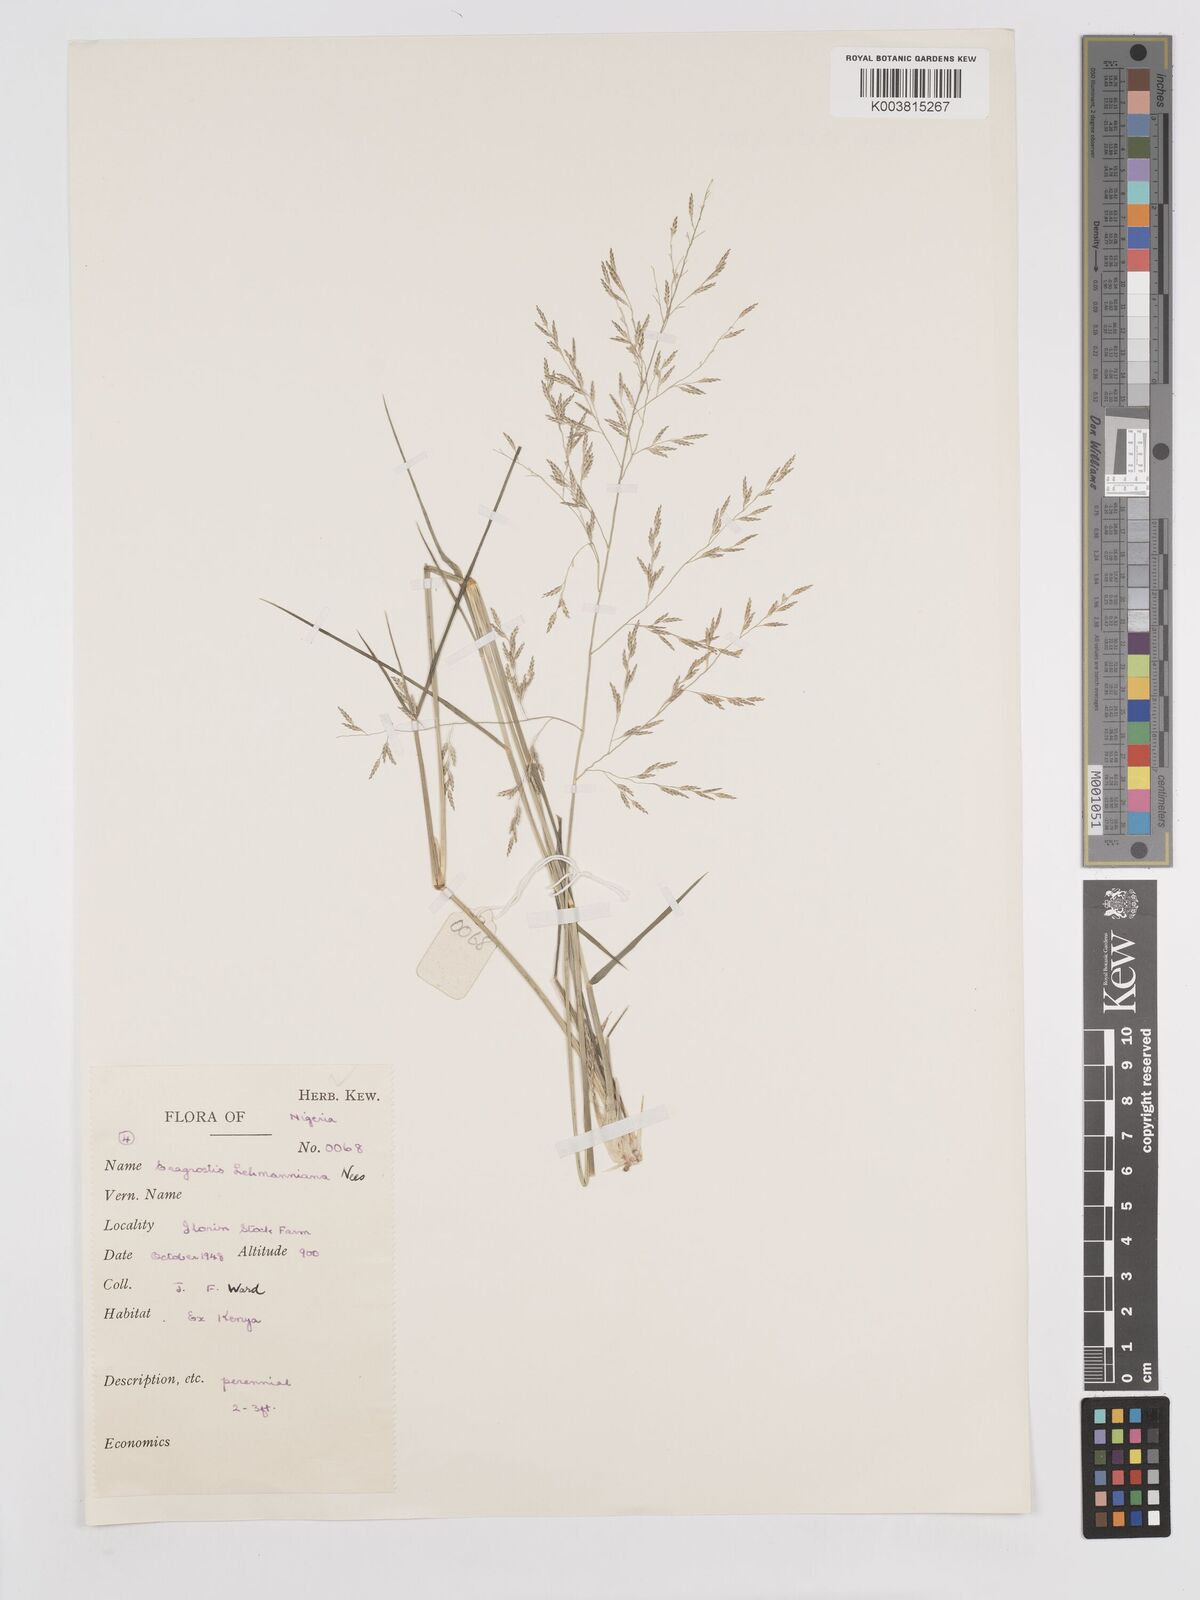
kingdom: Plantae
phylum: Tracheophyta
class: Liliopsida
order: Poales
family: Poaceae
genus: Eragrostis
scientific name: Eragrostis lehmanniana
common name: Lehmann lovegrass
